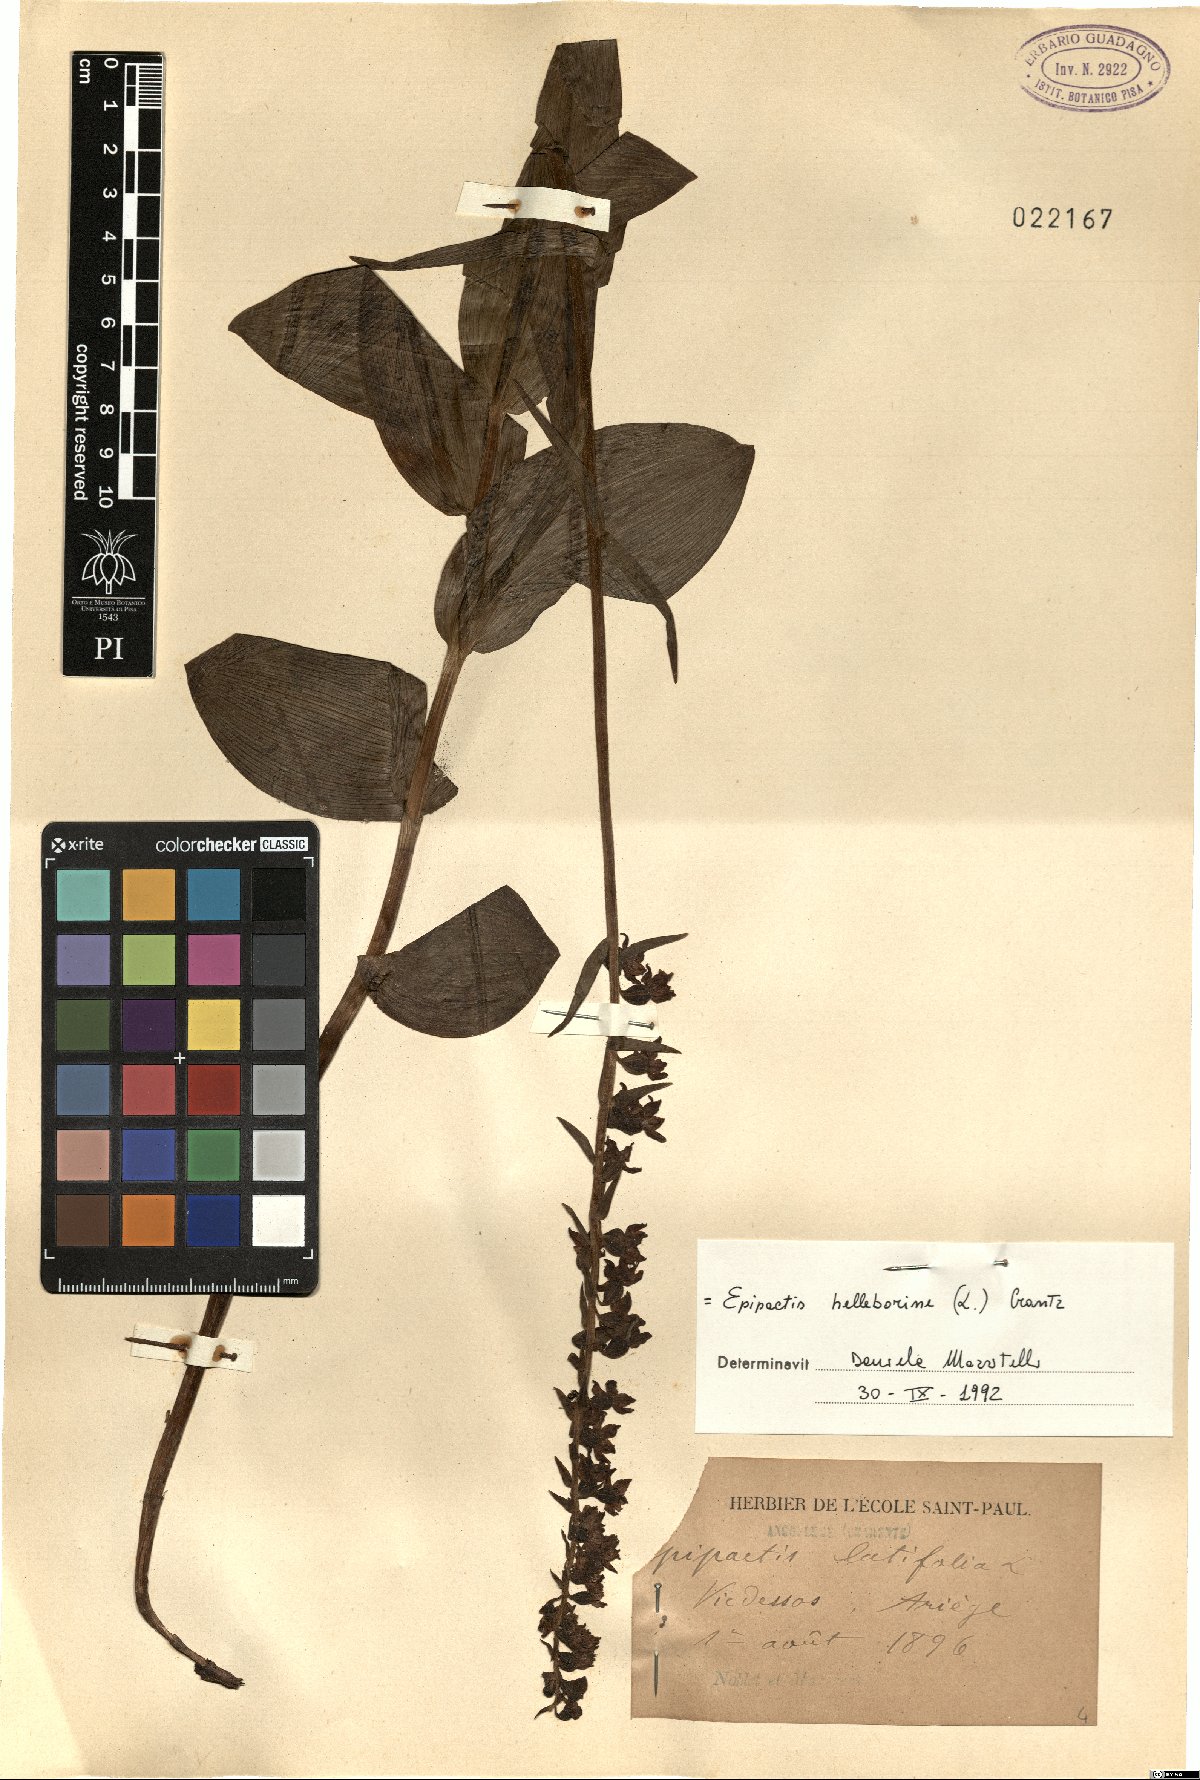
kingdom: Plantae
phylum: Tracheophyta
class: Liliopsida
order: Asparagales
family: Orchidaceae
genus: Epipactis
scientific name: Epipactis helleborine
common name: Broad-leaved helleborine
